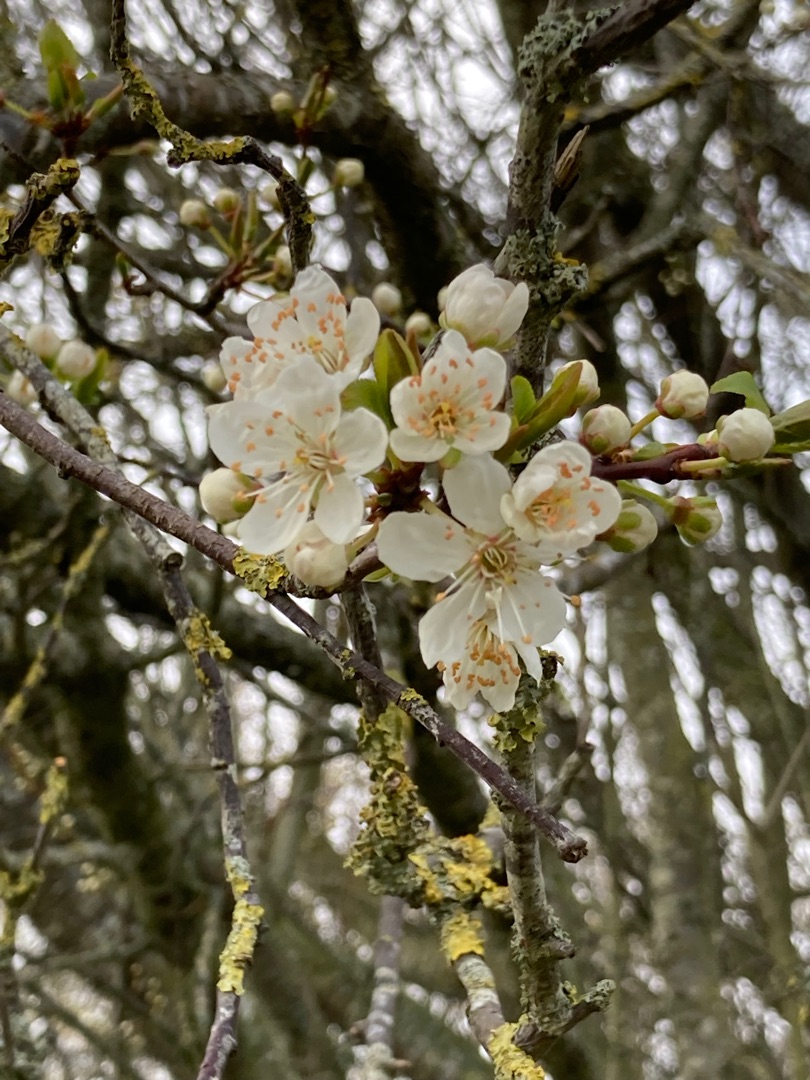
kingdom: Plantae
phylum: Tracheophyta
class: Magnoliopsida
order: Rosales
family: Rosaceae
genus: Prunus
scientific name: Prunus cerasifera
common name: Mirabel
